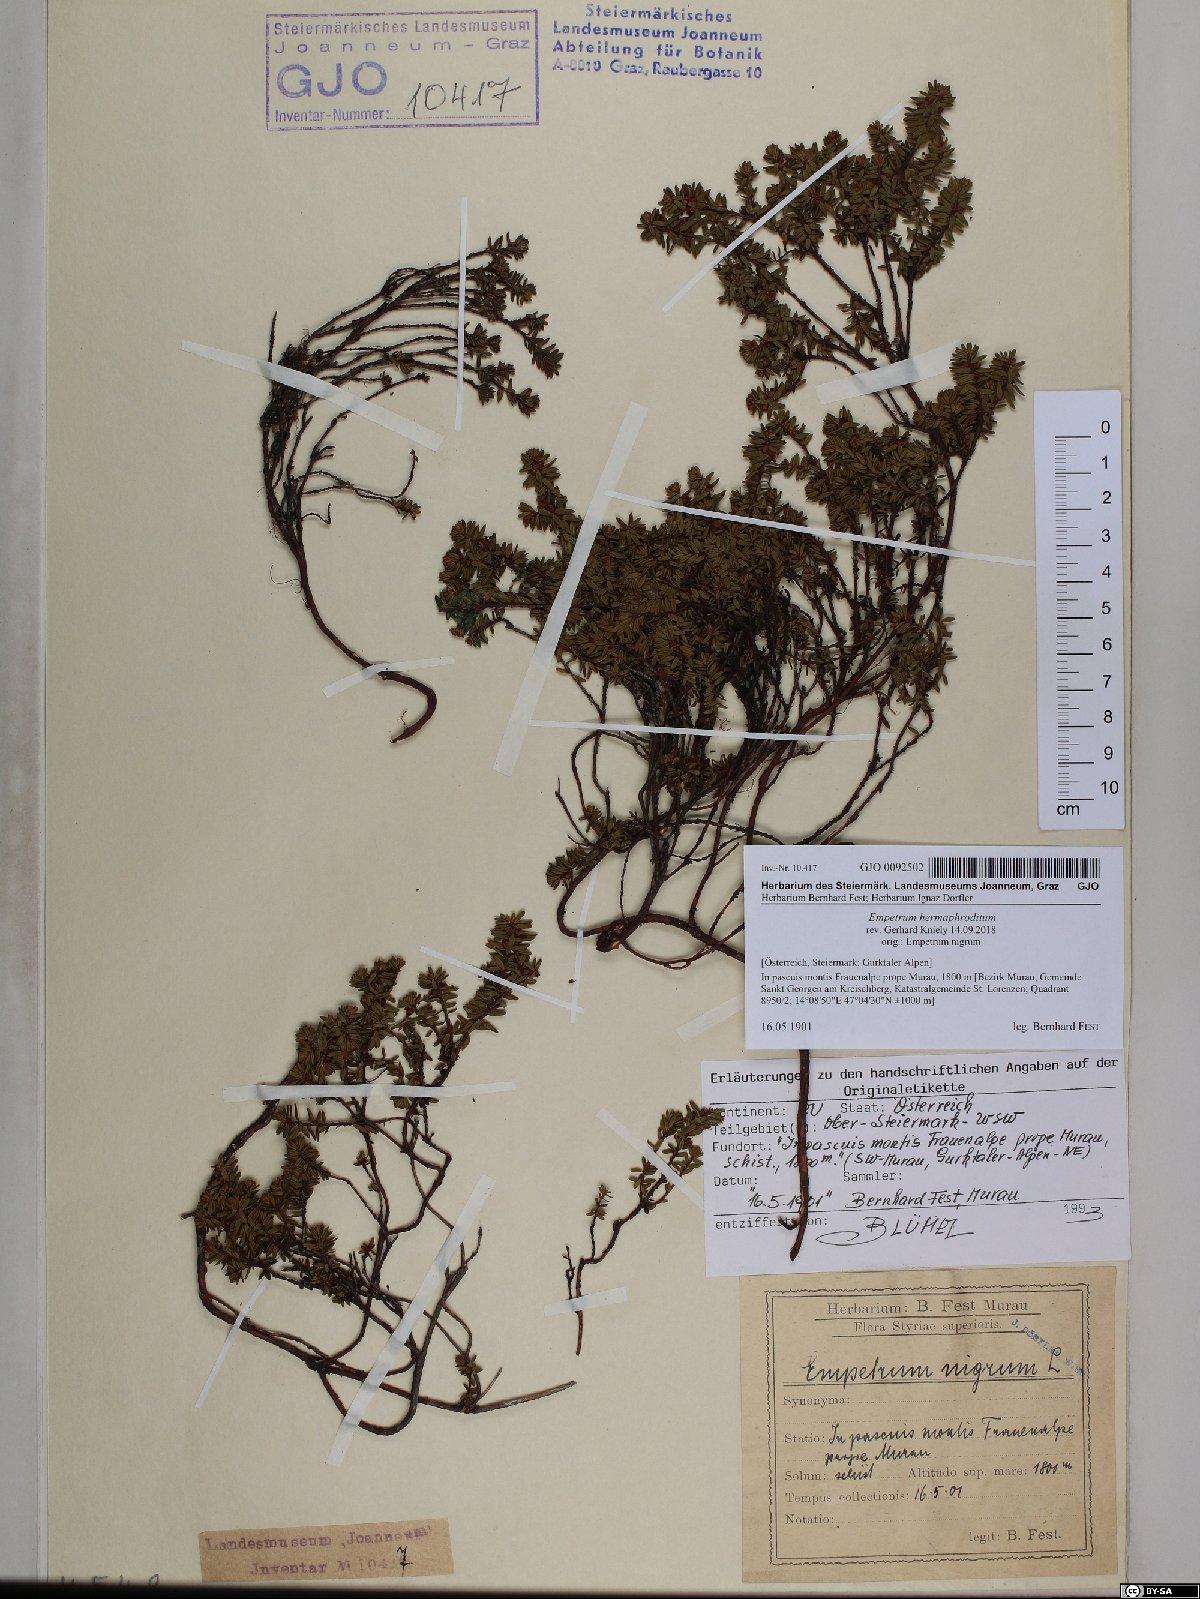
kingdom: Plantae
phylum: Tracheophyta
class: Magnoliopsida
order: Ericales
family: Ericaceae
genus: Empetrum
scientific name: Empetrum hermaphroditum
